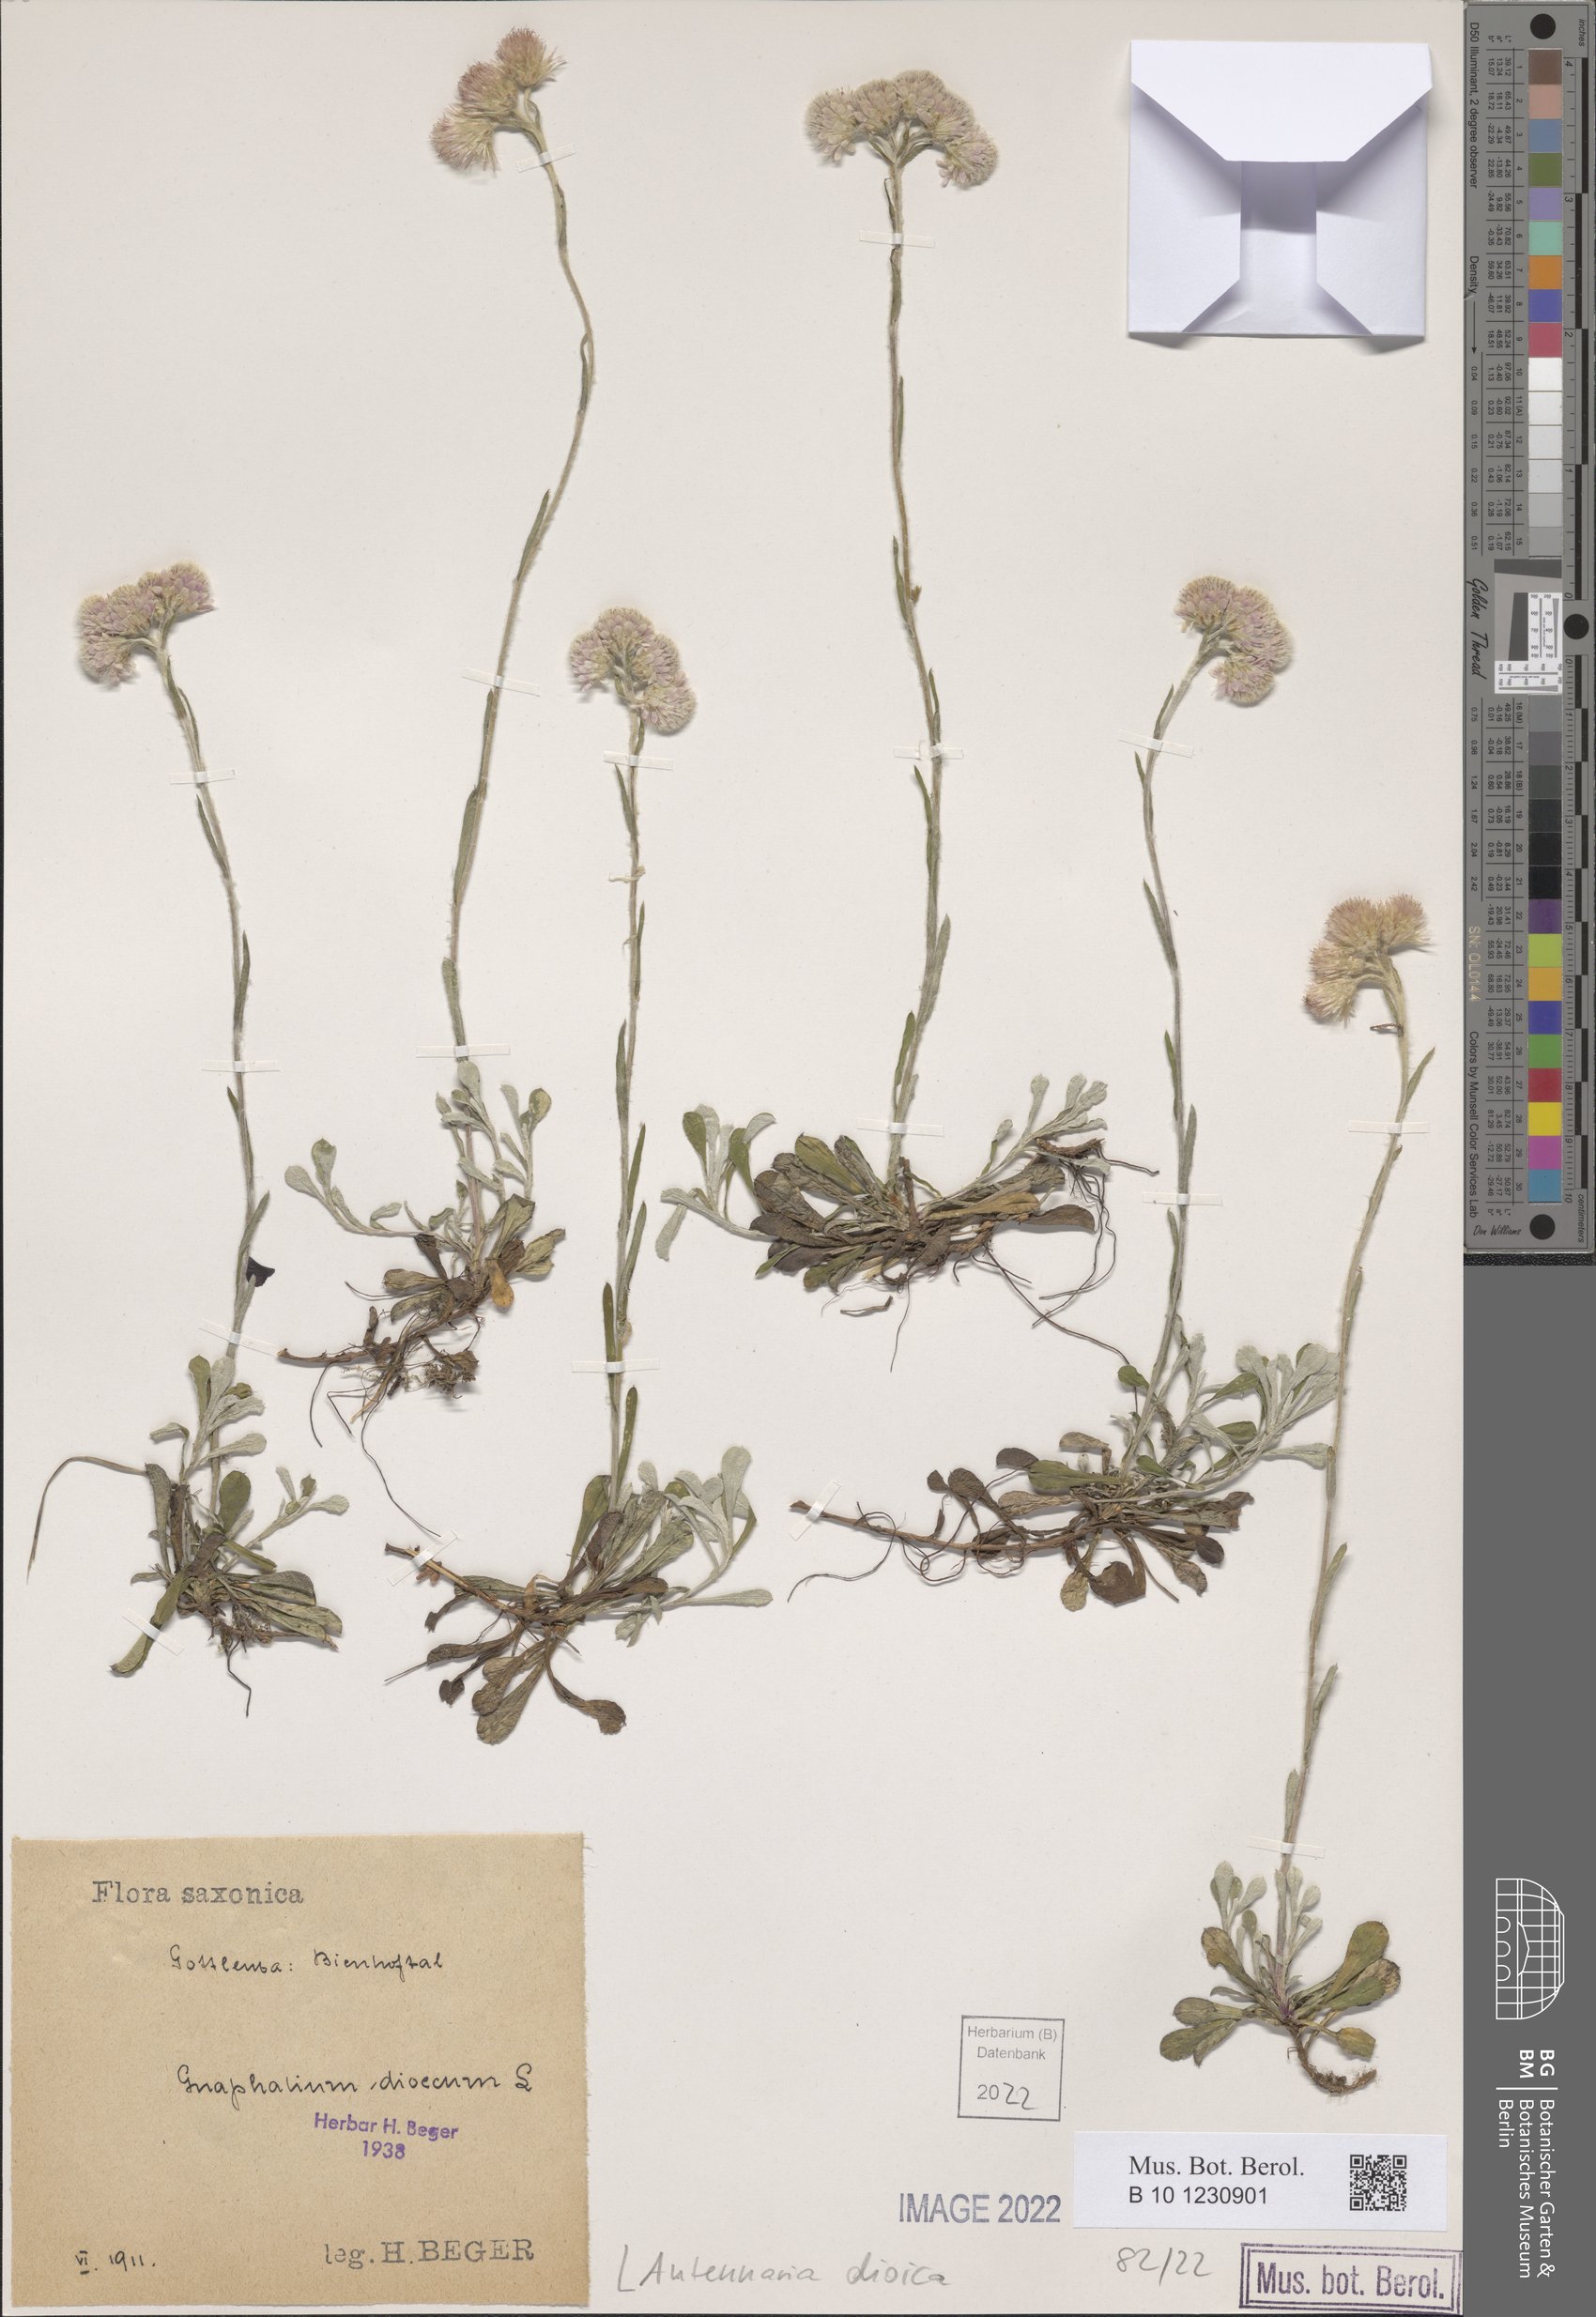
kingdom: Plantae
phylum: Tracheophyta
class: Magnoliopsida
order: Asterales
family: Asteraceae
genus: Antennaria
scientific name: Antennaria dioica
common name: Mountain everlasting
